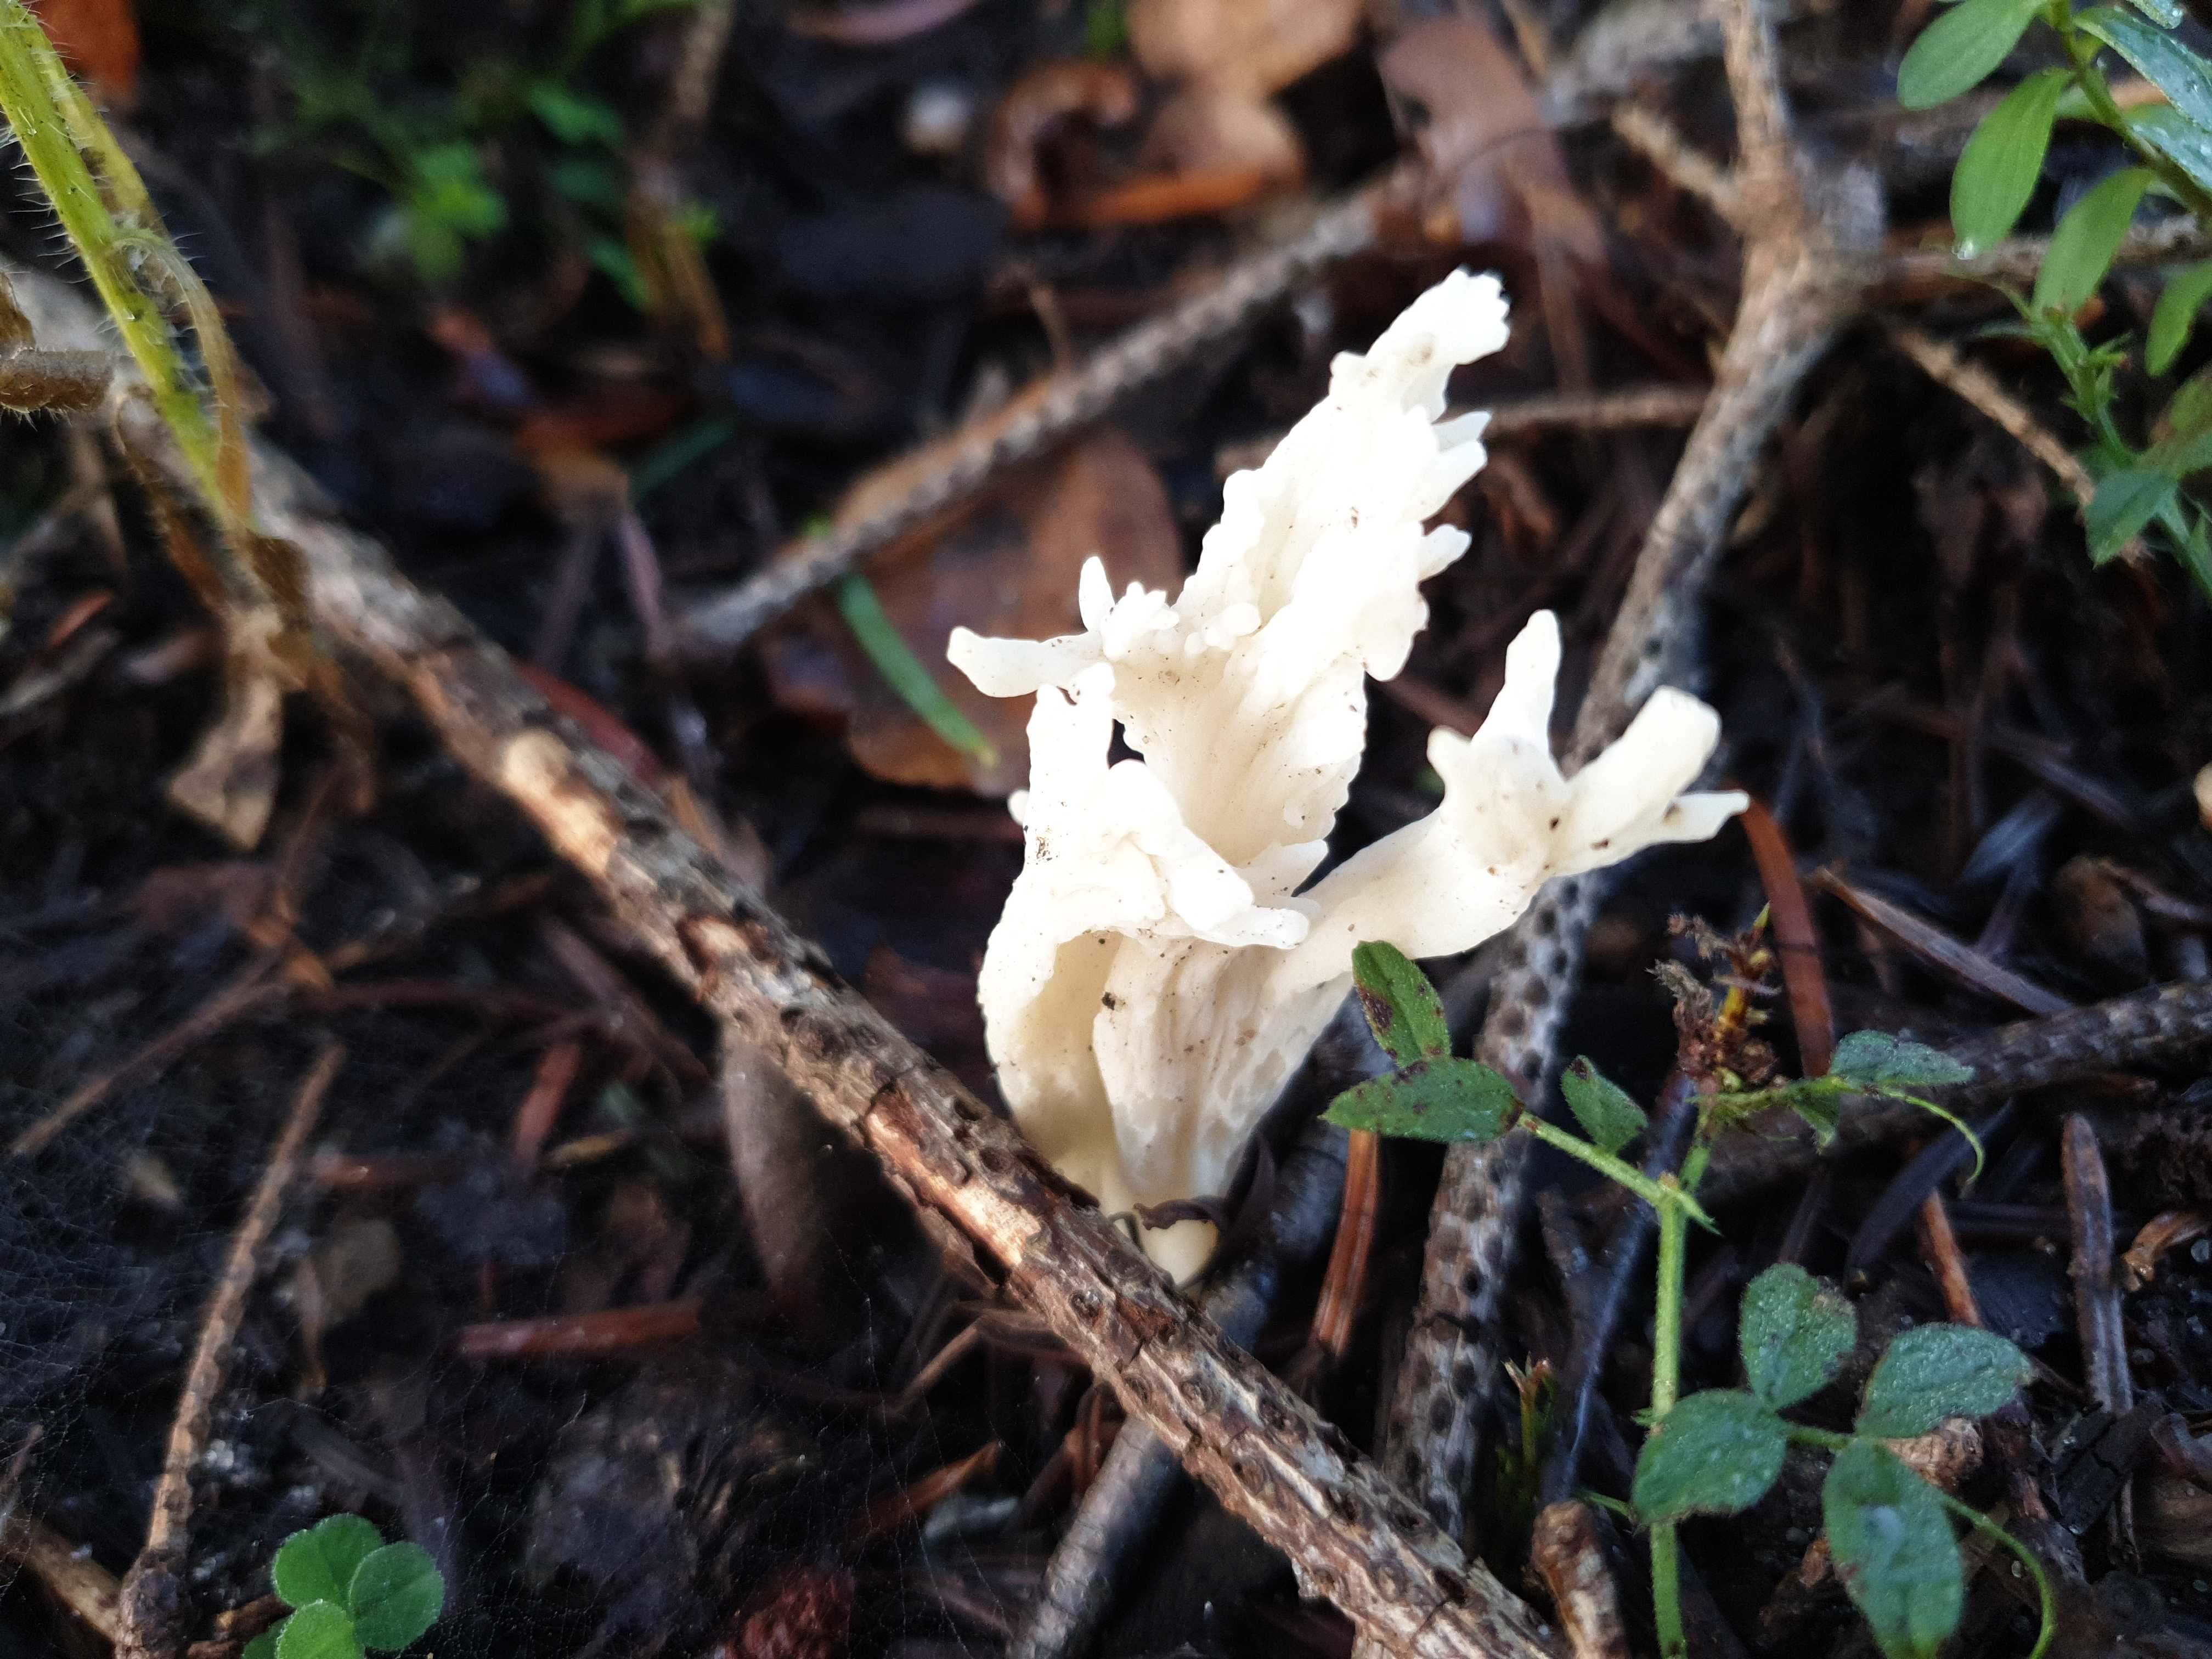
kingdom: Fungi
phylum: Basidiomycota
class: Agaricomycetes
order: Cantharellales
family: Hydnaceae
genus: Clavulina
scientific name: Clavulina
